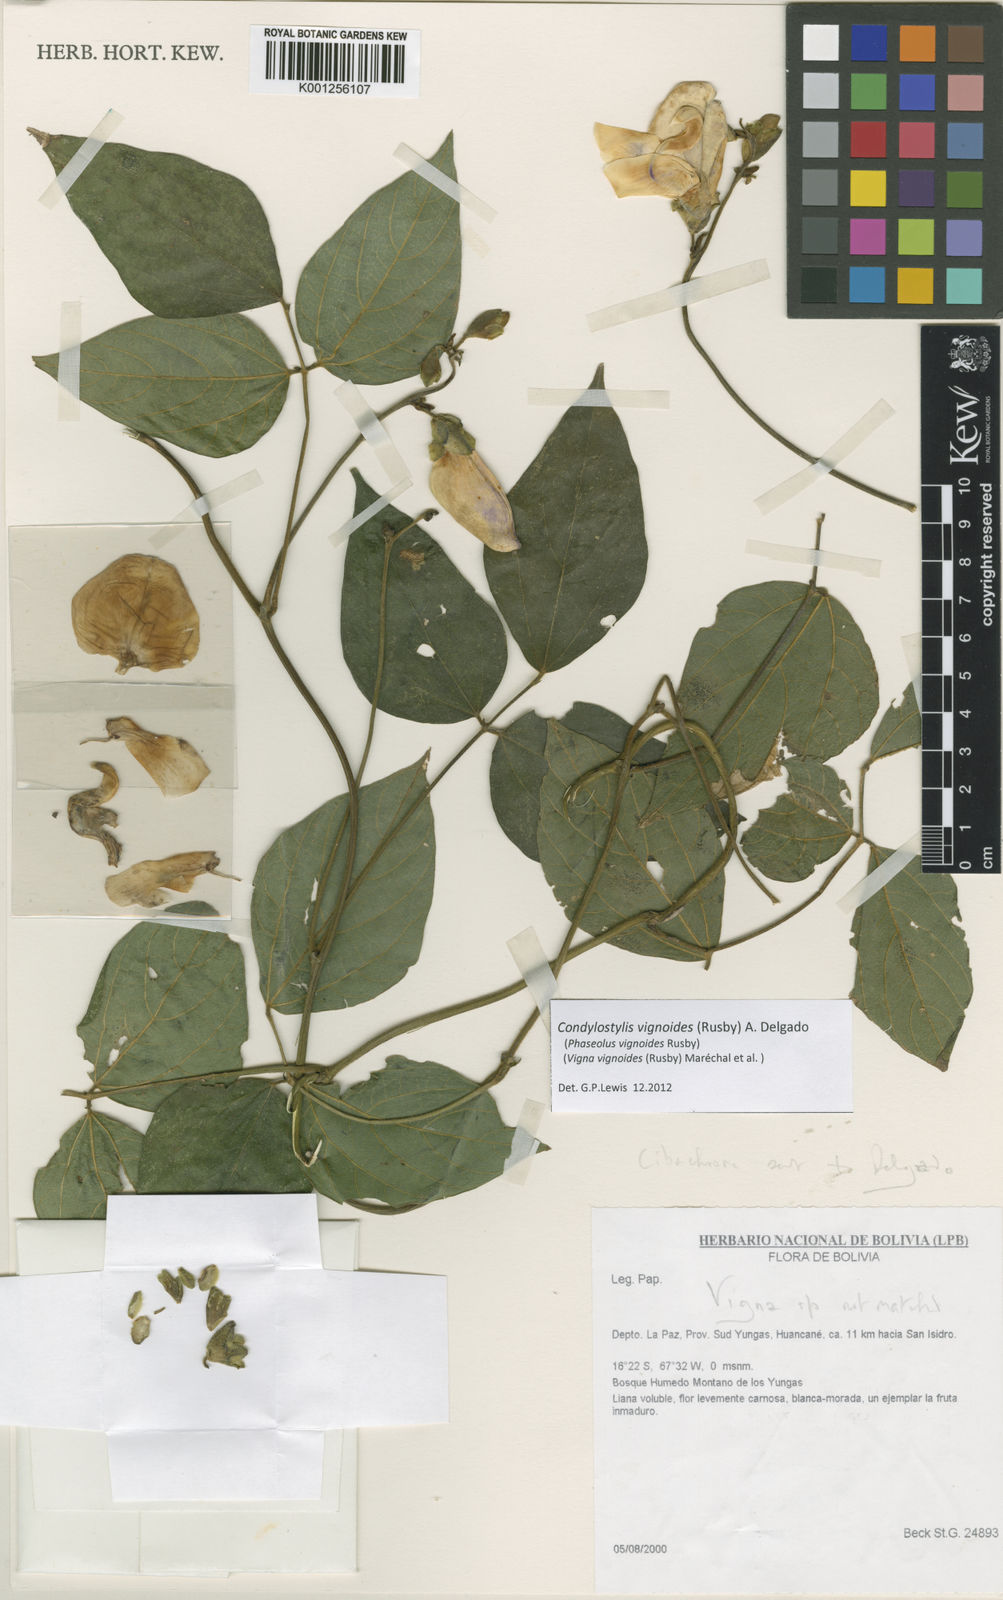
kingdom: Plantae
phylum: Tracheophyta
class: Magnoliopsida
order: Fabales
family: Fabaceae
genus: Condylostylis
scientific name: Condylostylis vignoides
